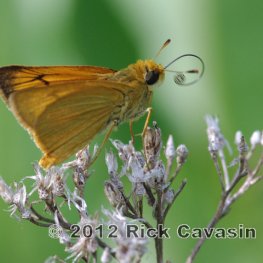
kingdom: Animalia
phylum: Arthropoda
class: Insecta
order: Lepidoptera
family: Hesperiidae
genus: Atrytone
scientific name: Atrytone delaware
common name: Delaware Skipper
